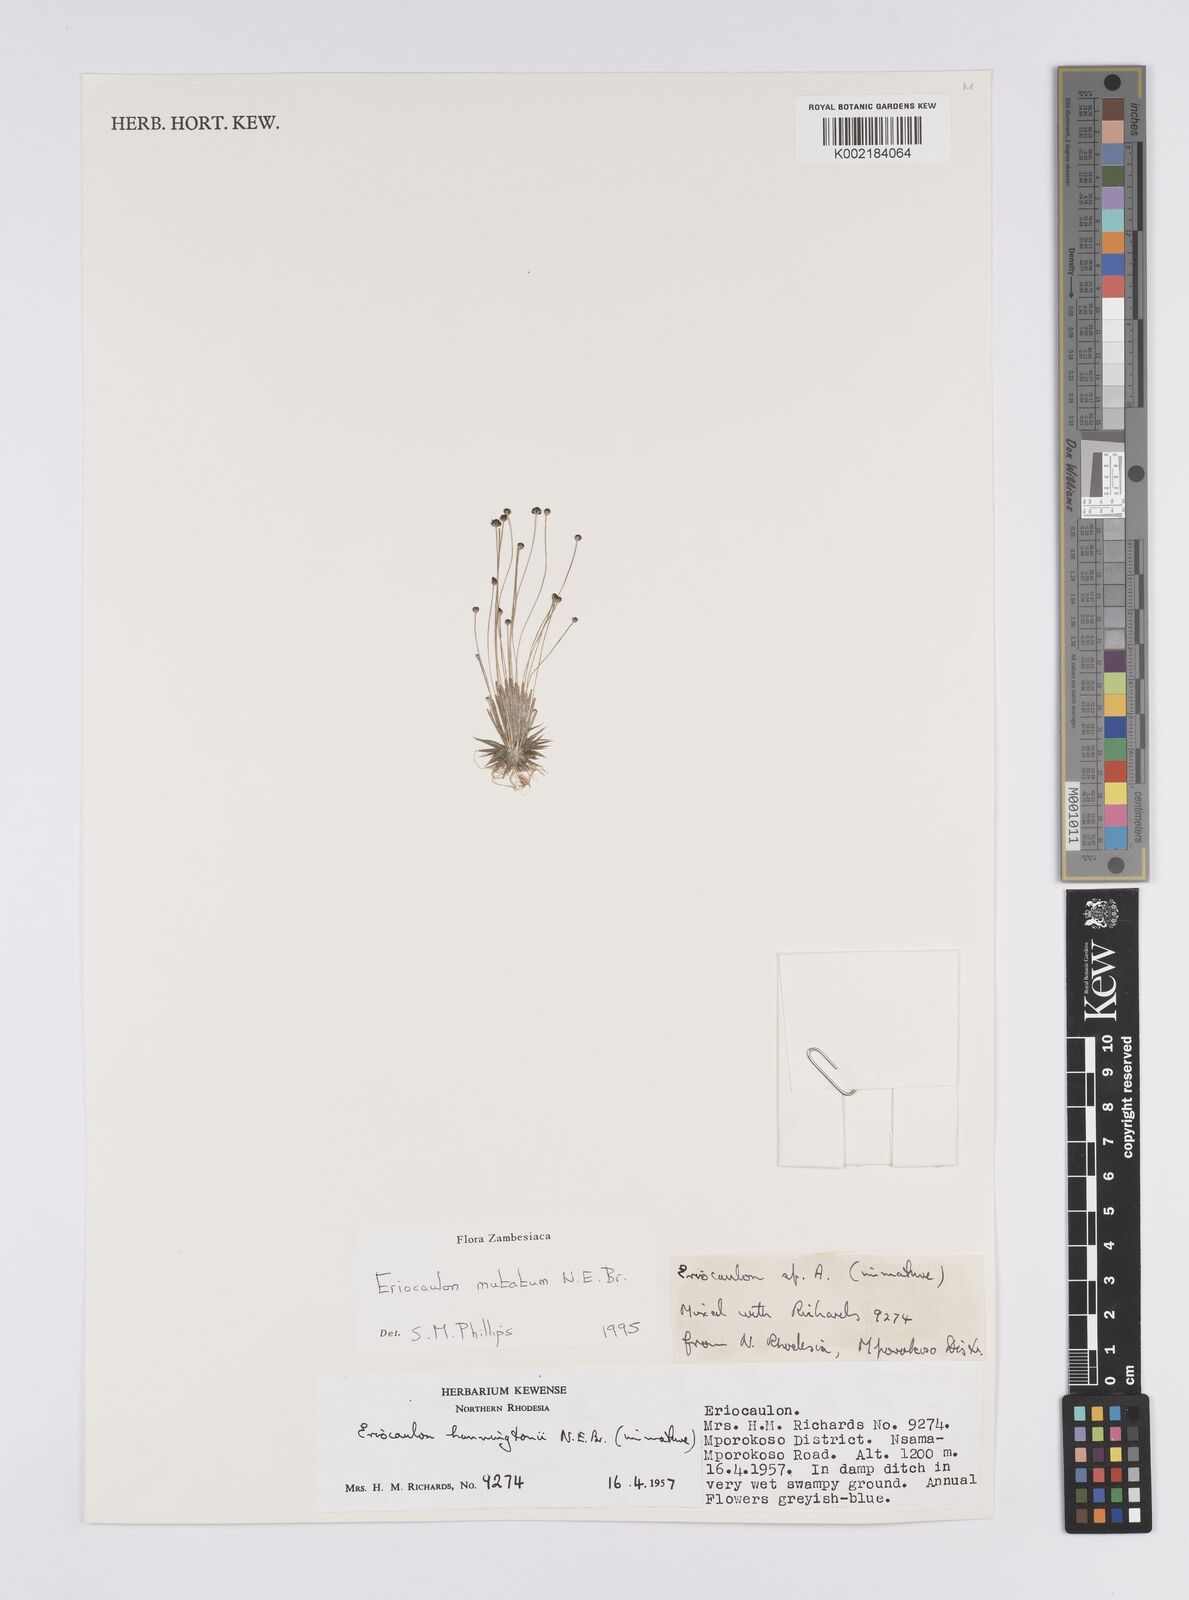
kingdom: Plantae
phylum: Tracheophyta
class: Liliopsida
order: Poales
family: Eriocaulaceae
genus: Eriocaulon
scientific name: Eriocaulon mutatum
